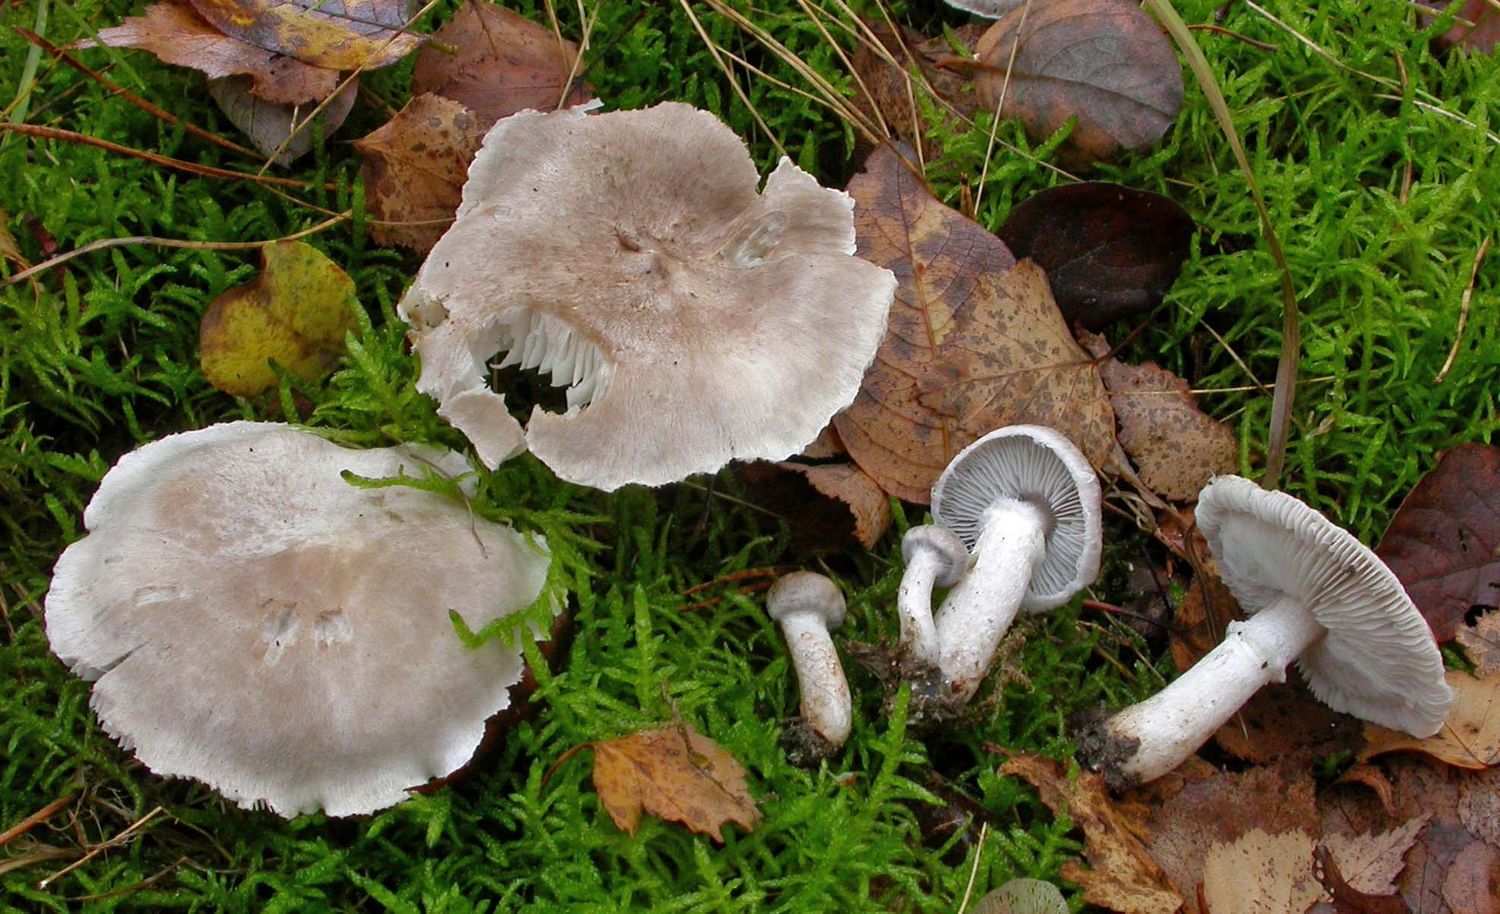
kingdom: Fungi
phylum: Basidiomycota
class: Agaricomycetes
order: Agaricales
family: Tricholomataceae
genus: Tricholoma
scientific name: Tricholoma cingulatum
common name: ring-ridderhat
